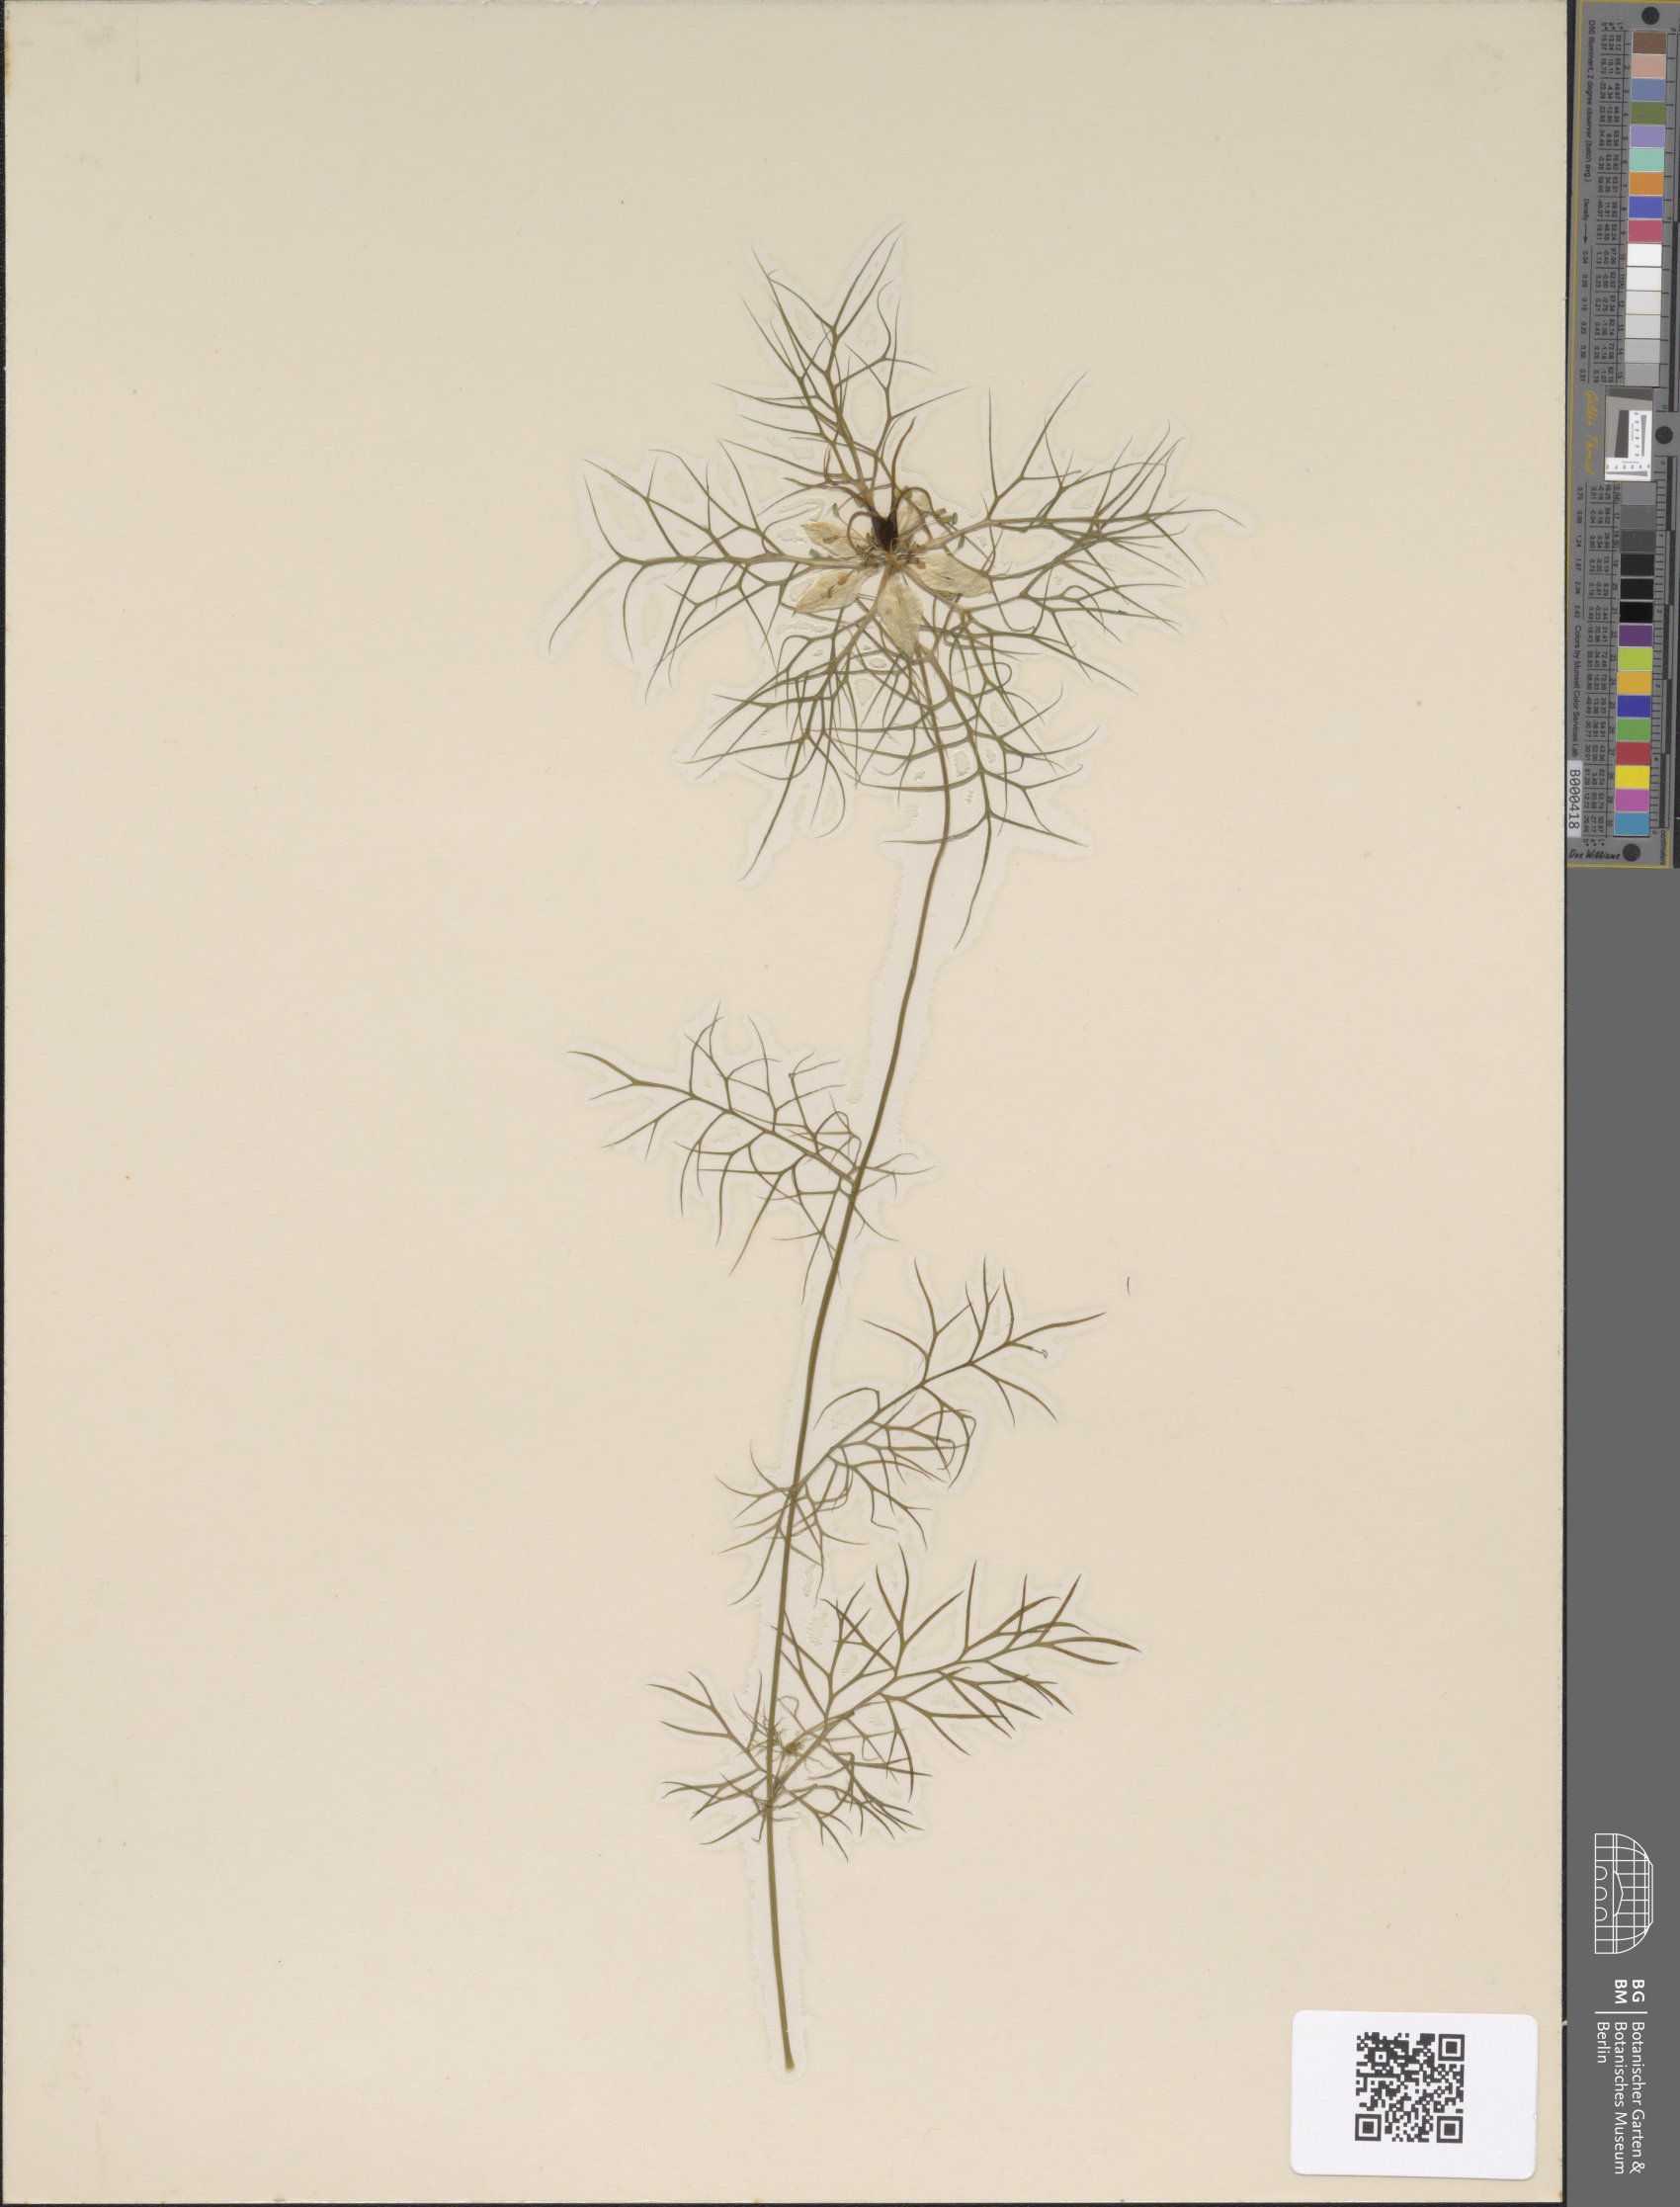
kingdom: Plantae
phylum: Tracheophyta
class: Magnoliopsida
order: Ranunculales
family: Ranunculaceae
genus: Nigella
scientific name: Nigella damascena
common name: Love-in-a-mist
